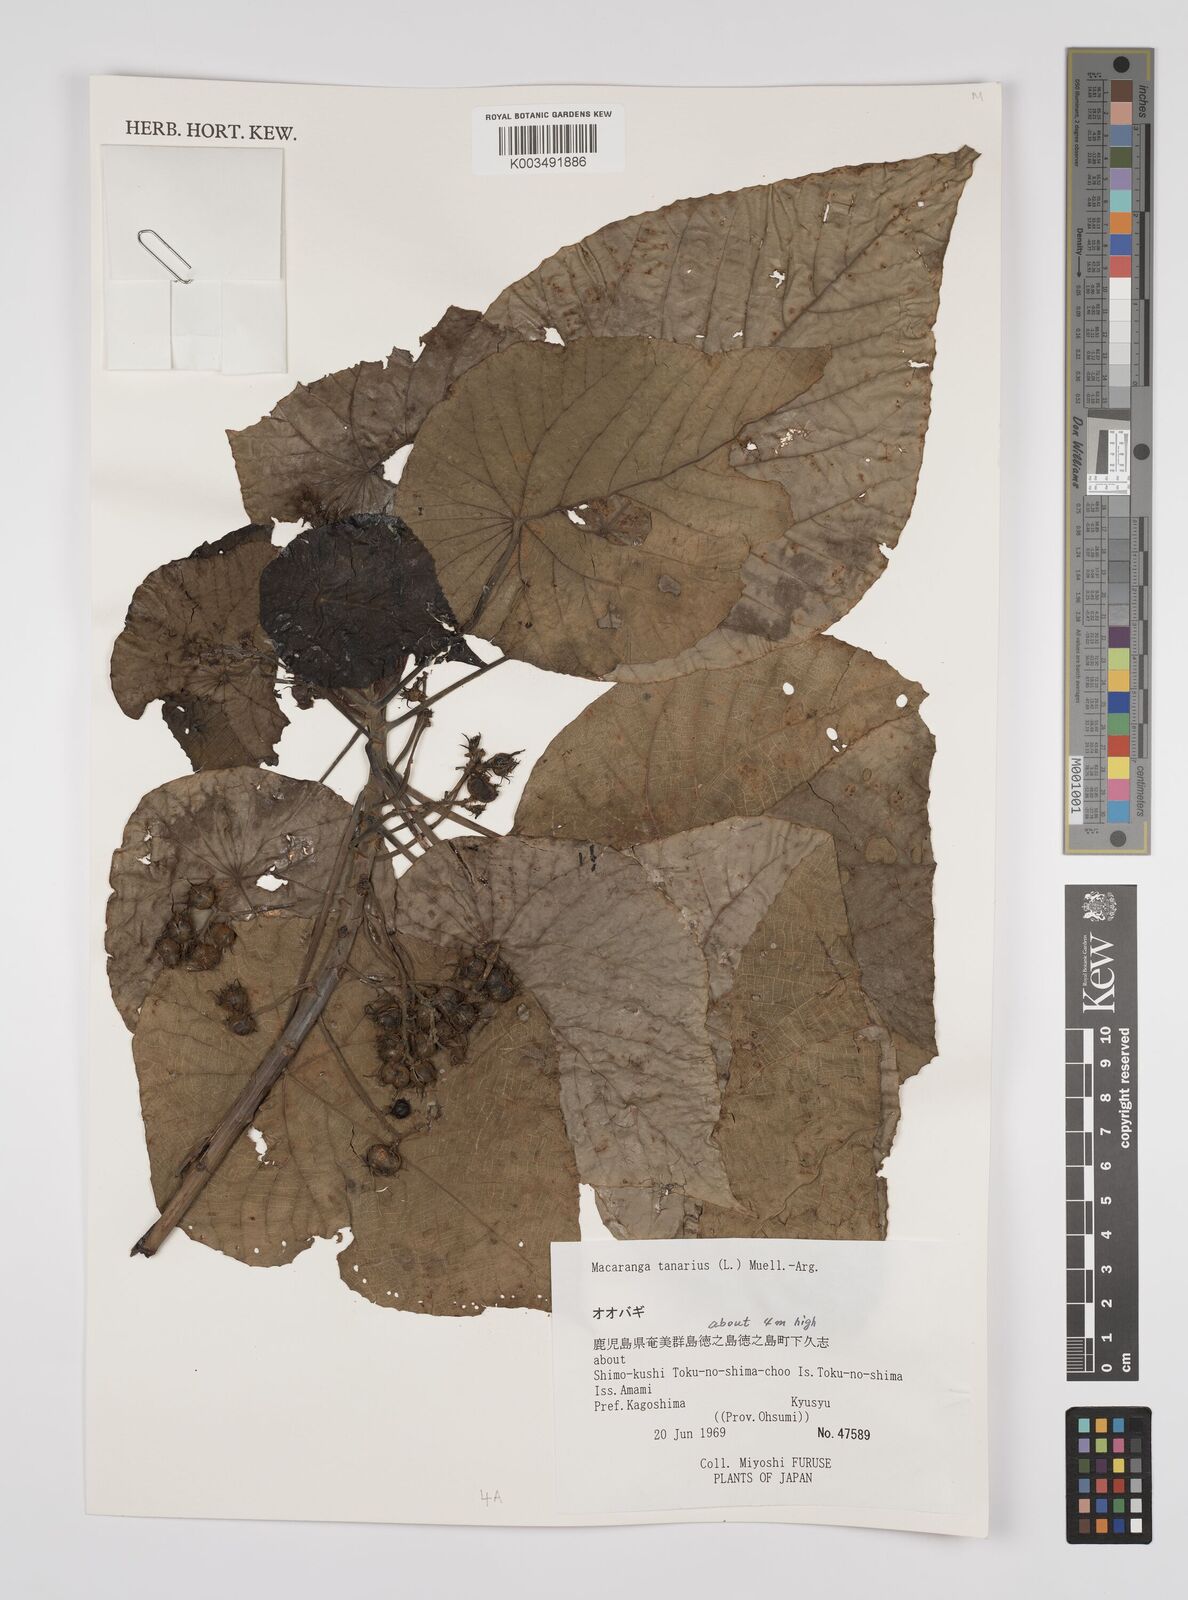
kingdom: Plantae
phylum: Tracheophyta
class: Magnoliopsida
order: Malpighiales
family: Euphorbiaceae
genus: Macaranga
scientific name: Macaranga tanarius
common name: Parasol leaf tree
